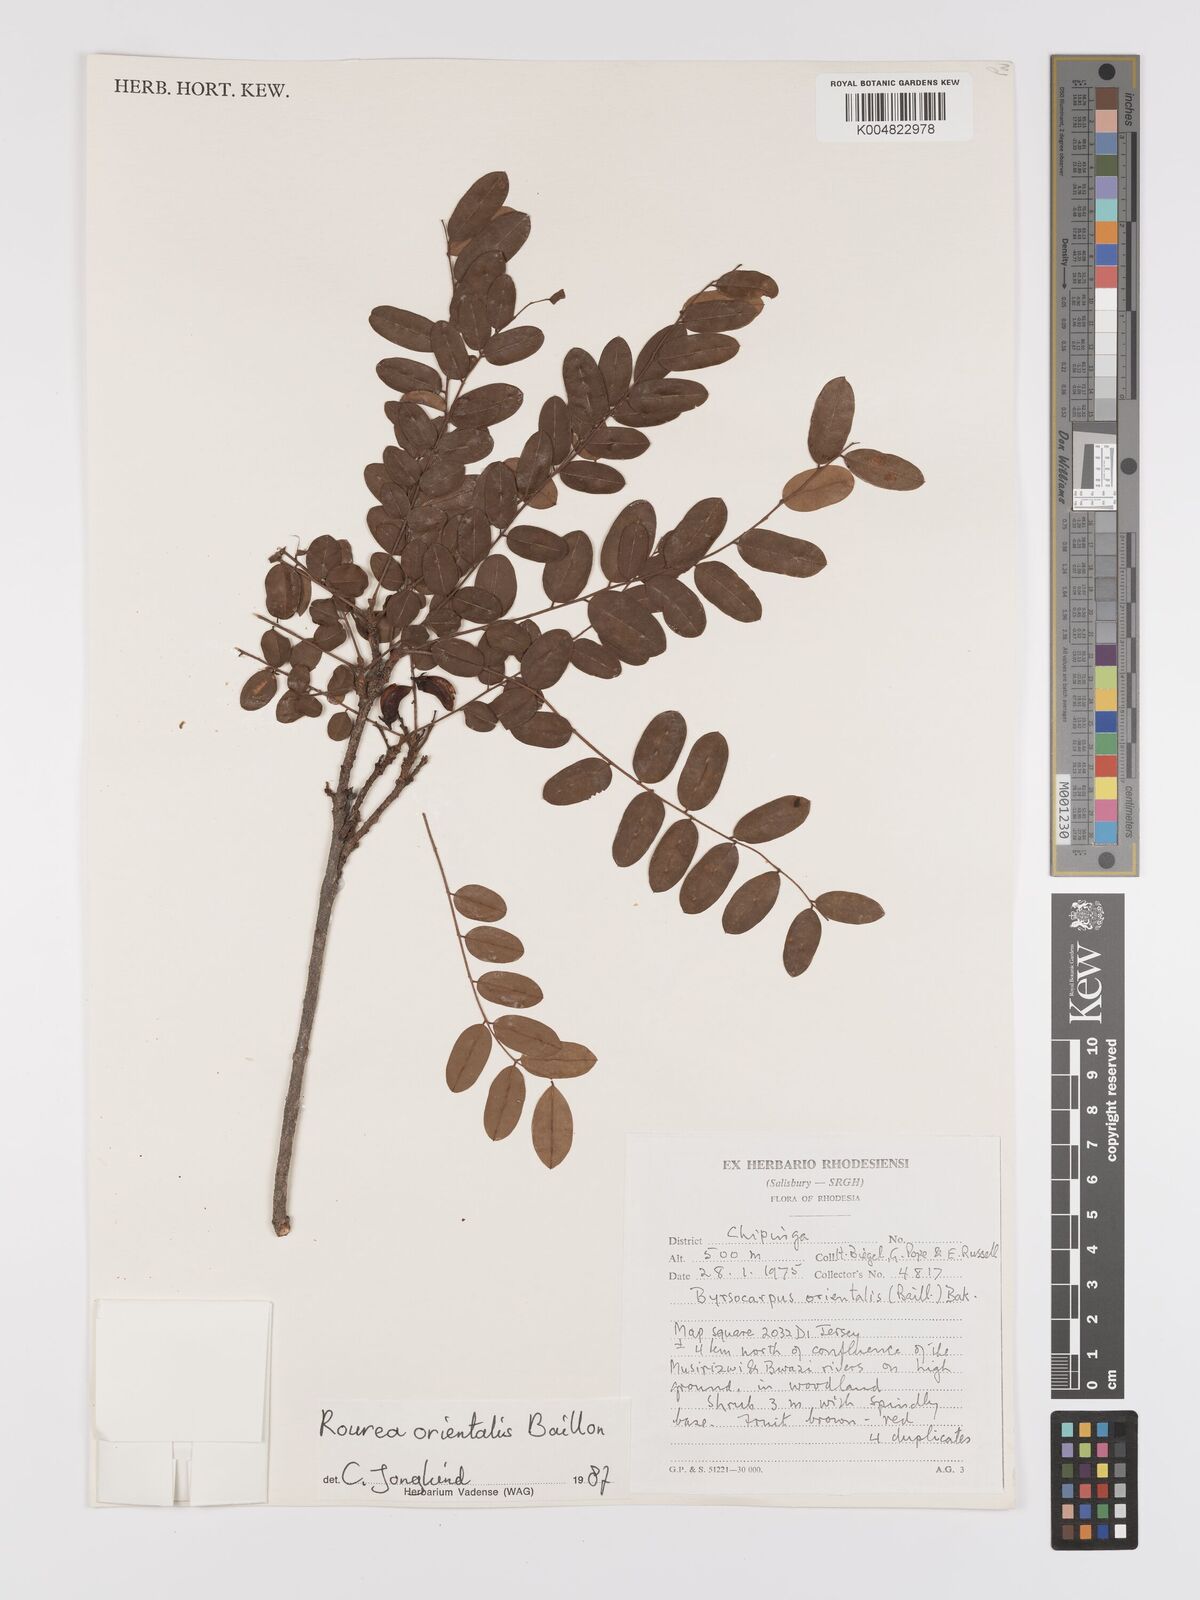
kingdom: Plantae
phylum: Tracheophyta
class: Magnoliopsida
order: Oxalidales
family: Connaraceae
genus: Rourea
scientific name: Rourea orientalis
